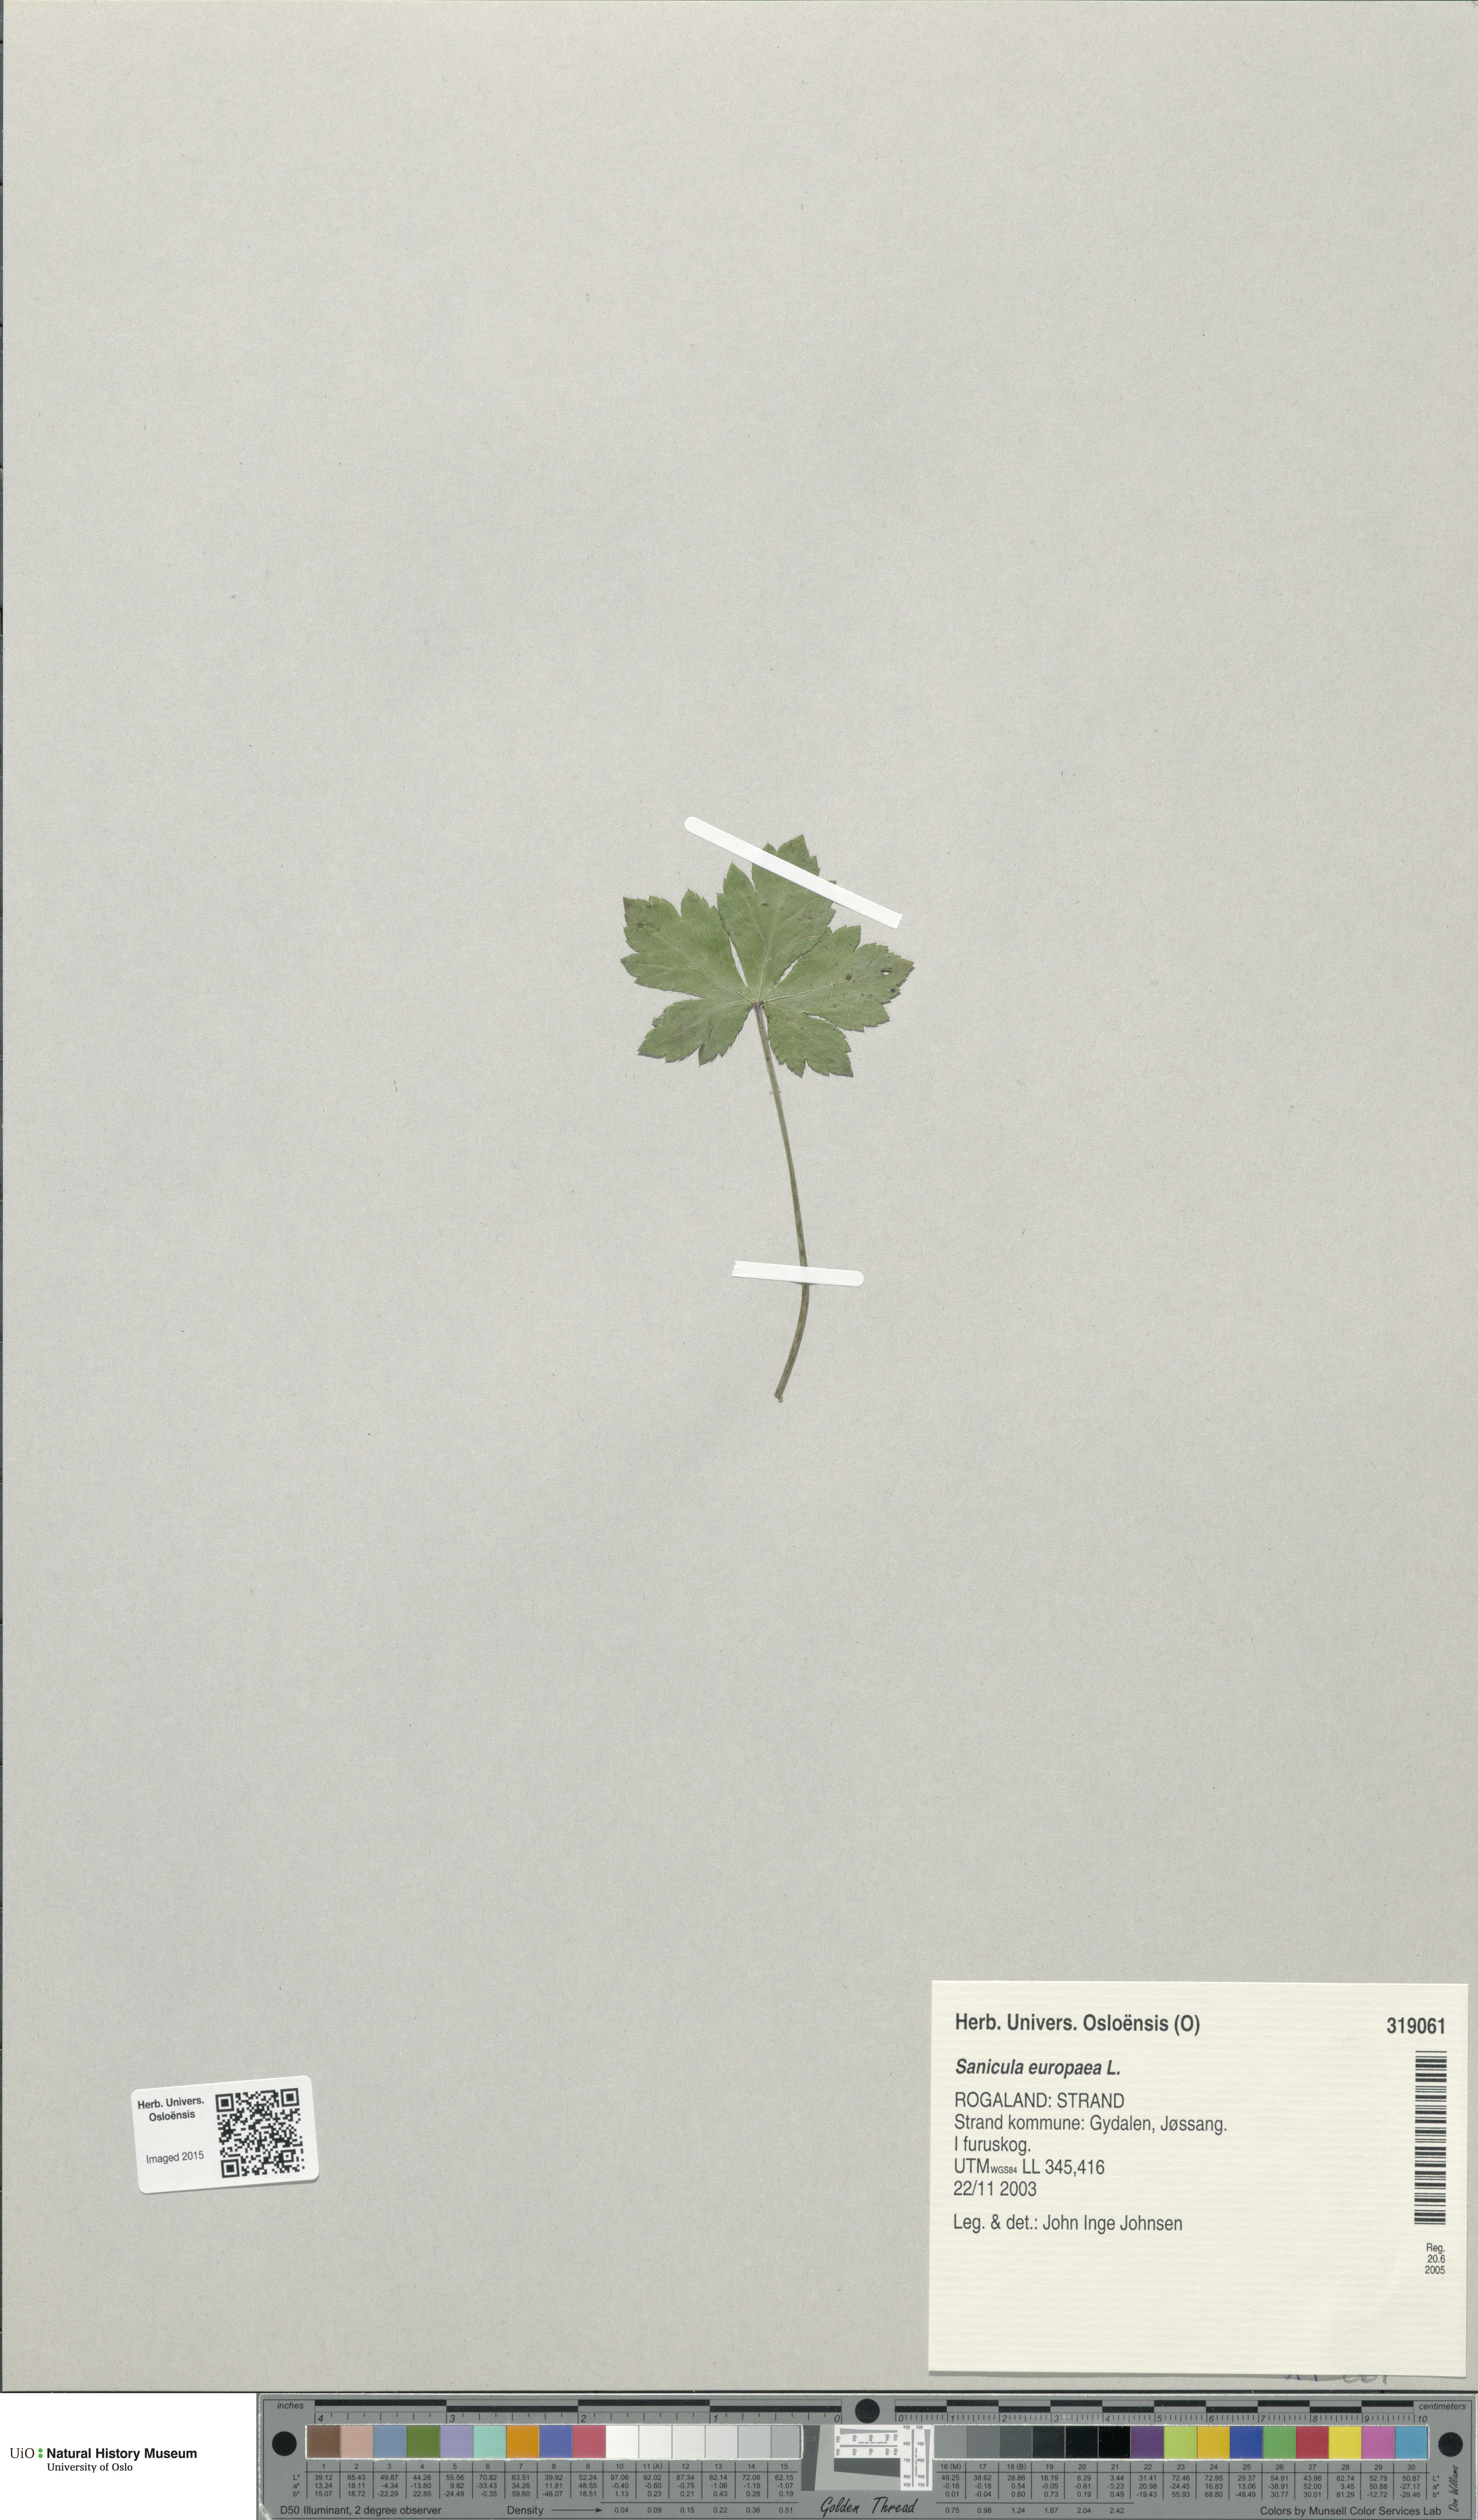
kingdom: Plantae
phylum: Tracheophyta
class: Magnoliopsida
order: Apiales
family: Apiaceae
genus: Sanicula
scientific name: Sanicula europaea
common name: Sanicle
